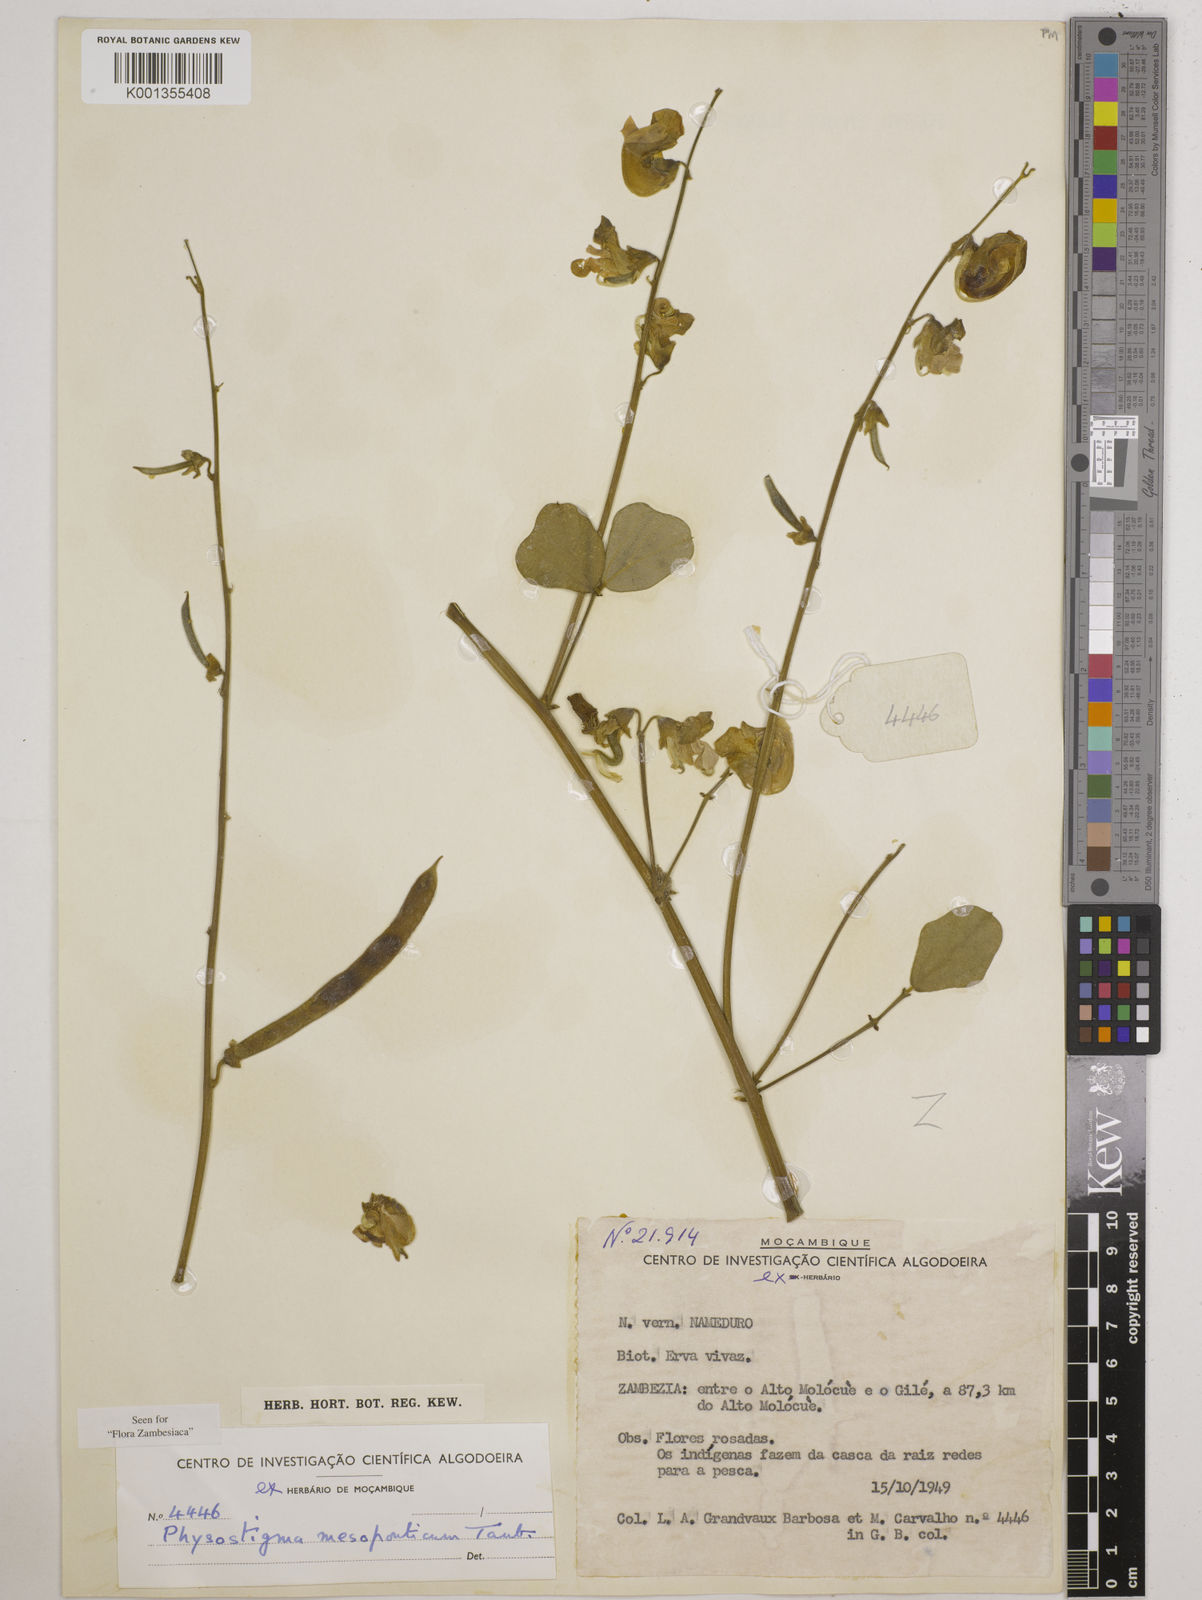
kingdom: Plantae
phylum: Tracheophyta
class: Magnoliopsida
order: Fabales
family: Fabaceae
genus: Physostigma
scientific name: Physostigma mesoponticum
